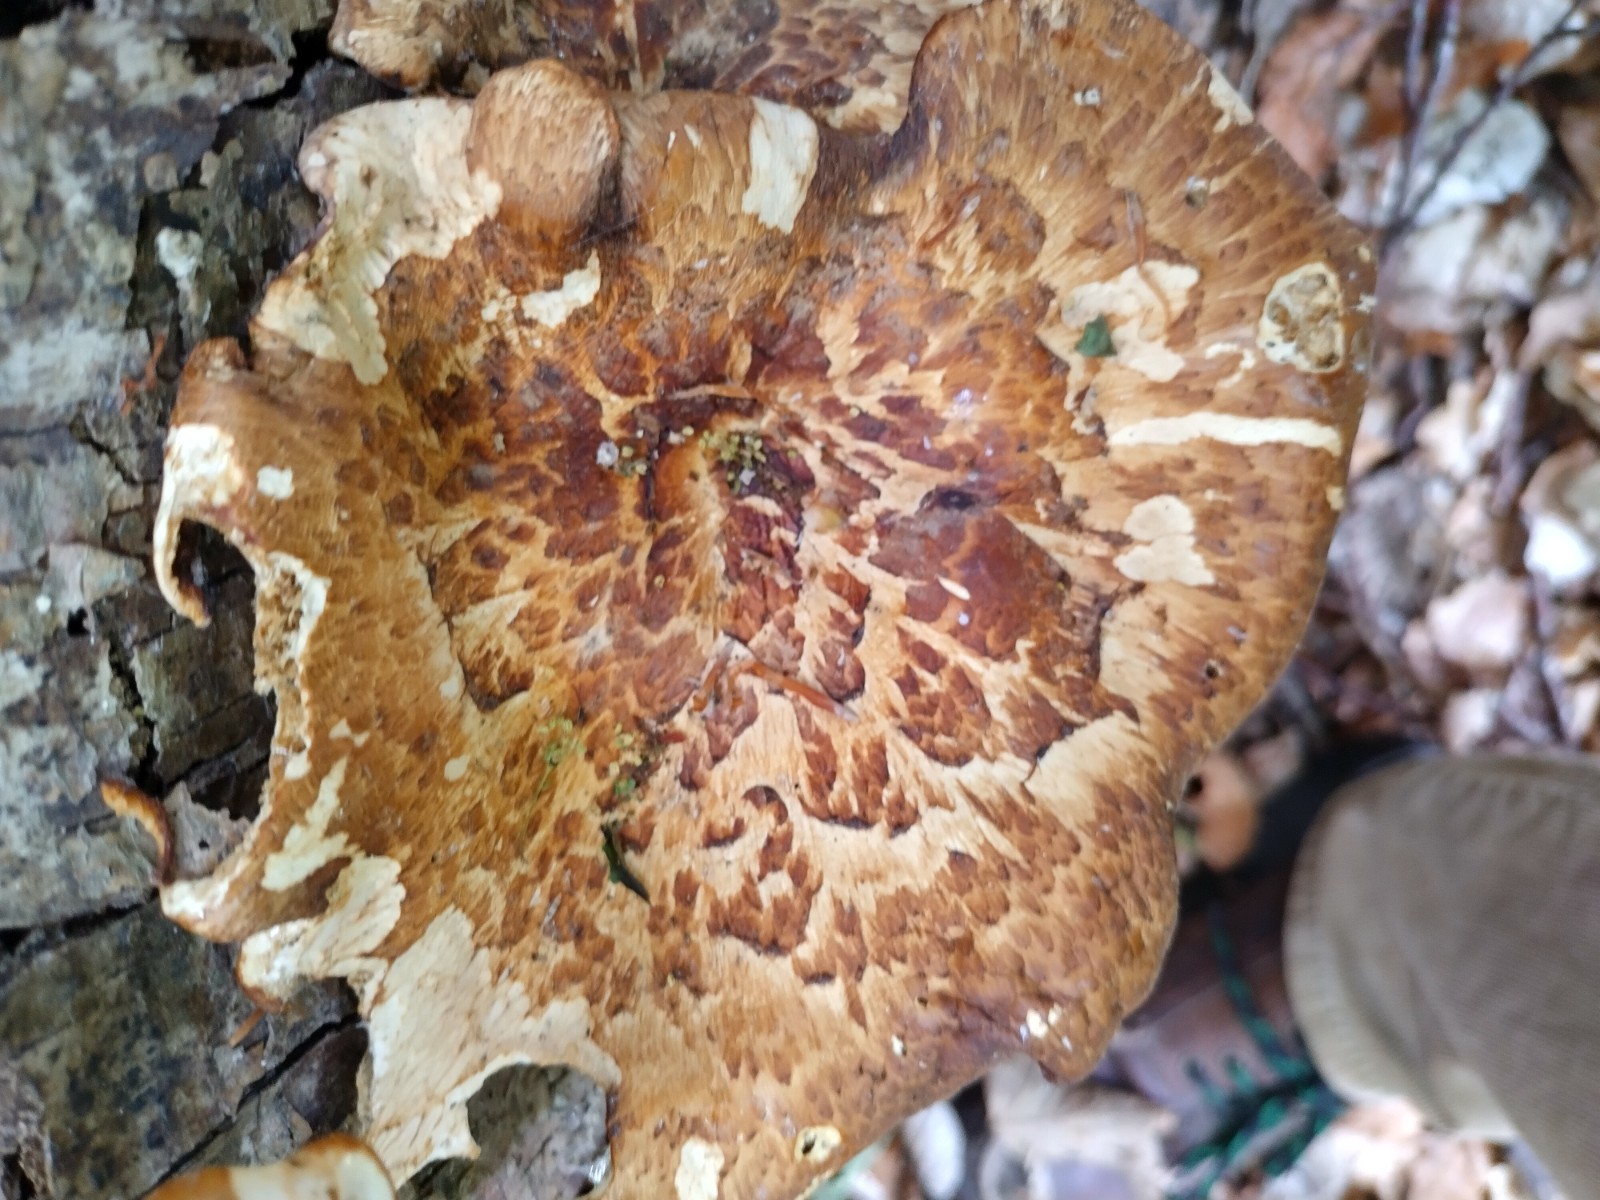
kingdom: Fungi
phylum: Basidiomycota
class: Agaricomycetes
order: Polyporales
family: Polyporaceae
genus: Polyporus
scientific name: Polyporus tuberaster
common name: knoldet stilkporesvamp
